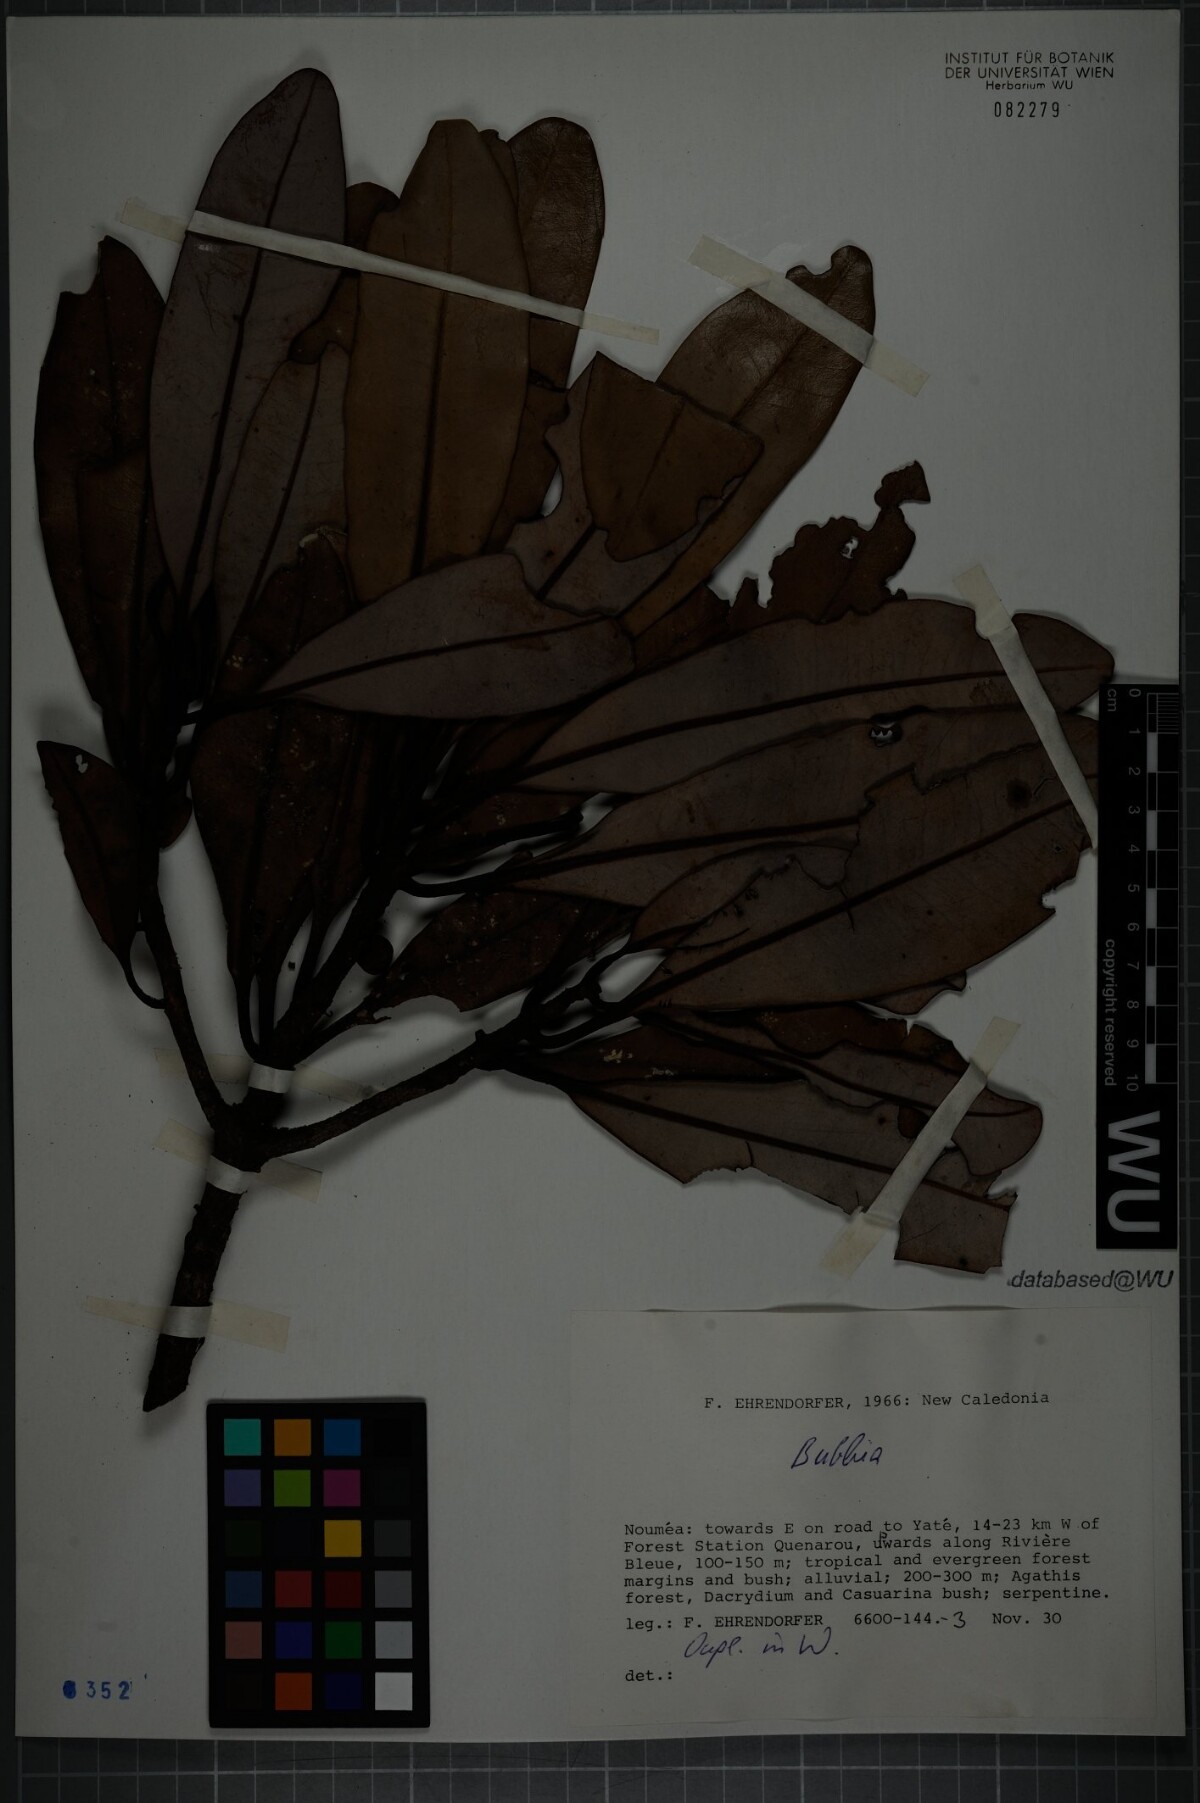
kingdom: Plantae
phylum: Tracheophyta
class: Magnoliopsida
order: Canellales
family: Winteraceae
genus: Zygogynum
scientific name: Zygogynum
